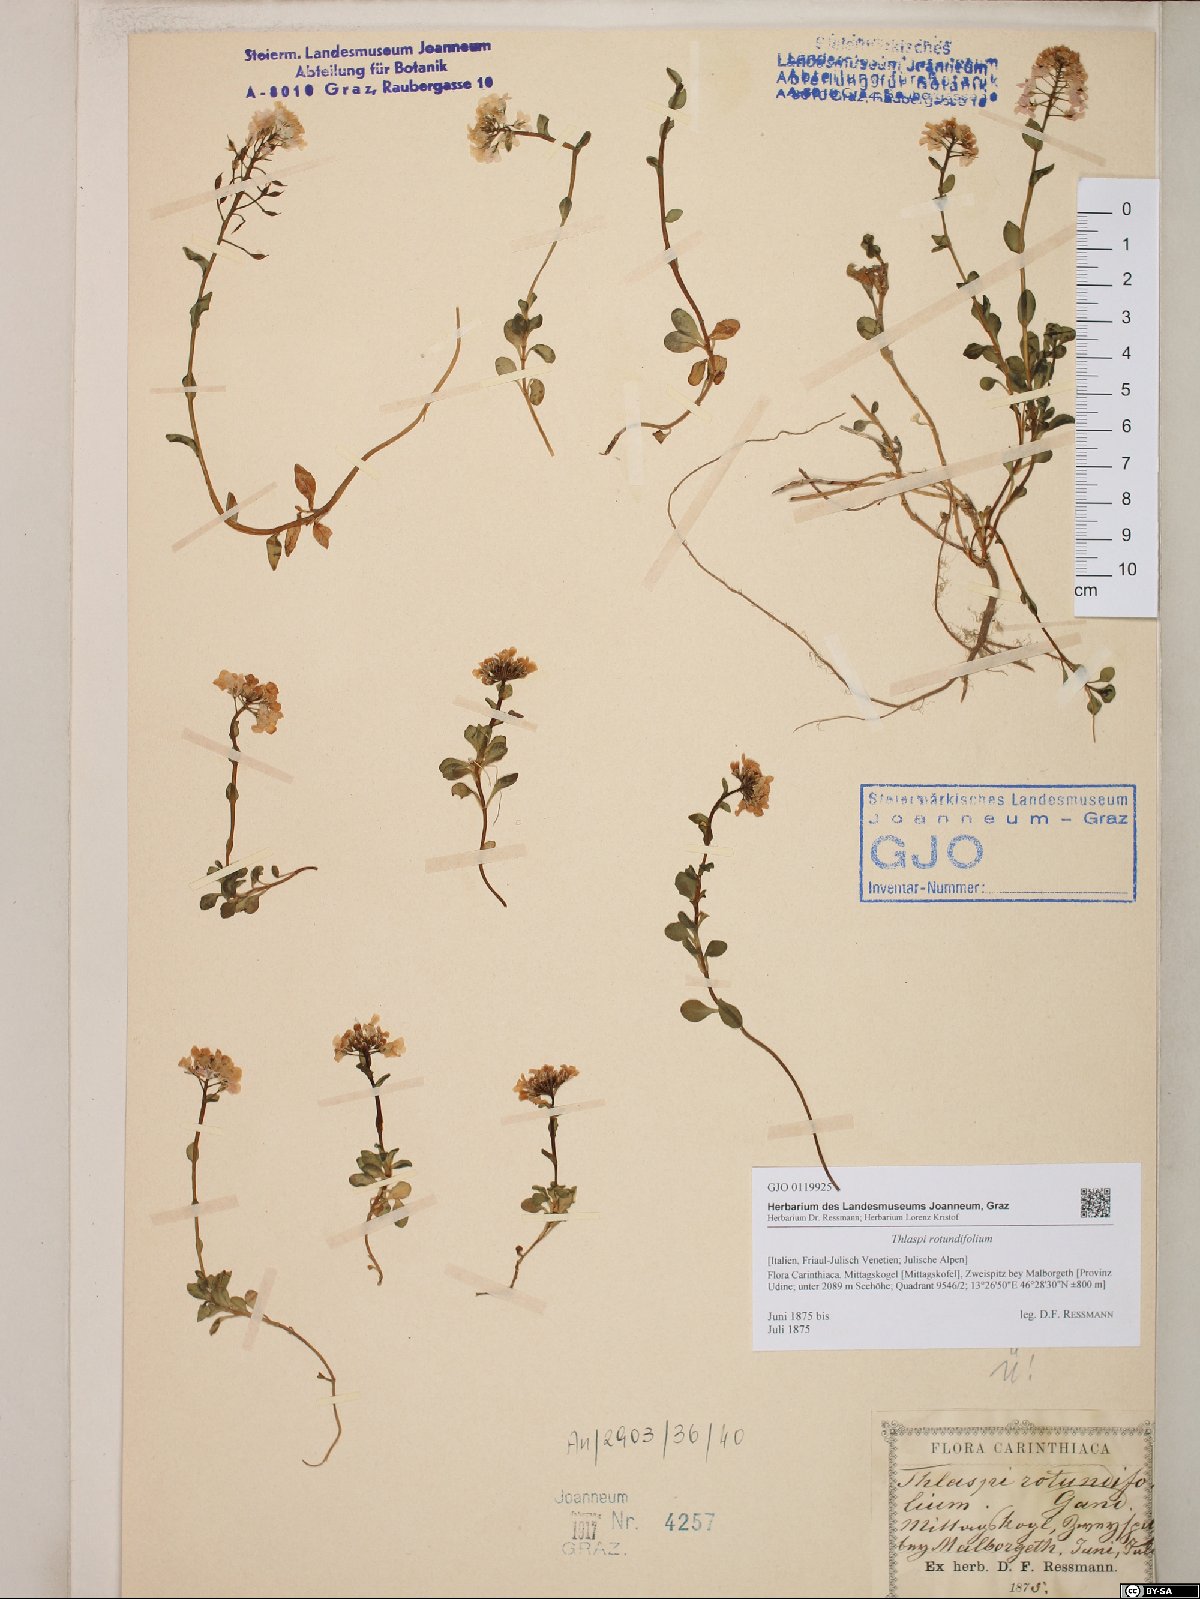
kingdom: Plantae
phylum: Tracheophyta
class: Magnoliopsida
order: Brassicales
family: Brassicaceae
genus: Noccaea
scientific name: Noccaea rotundifolia
